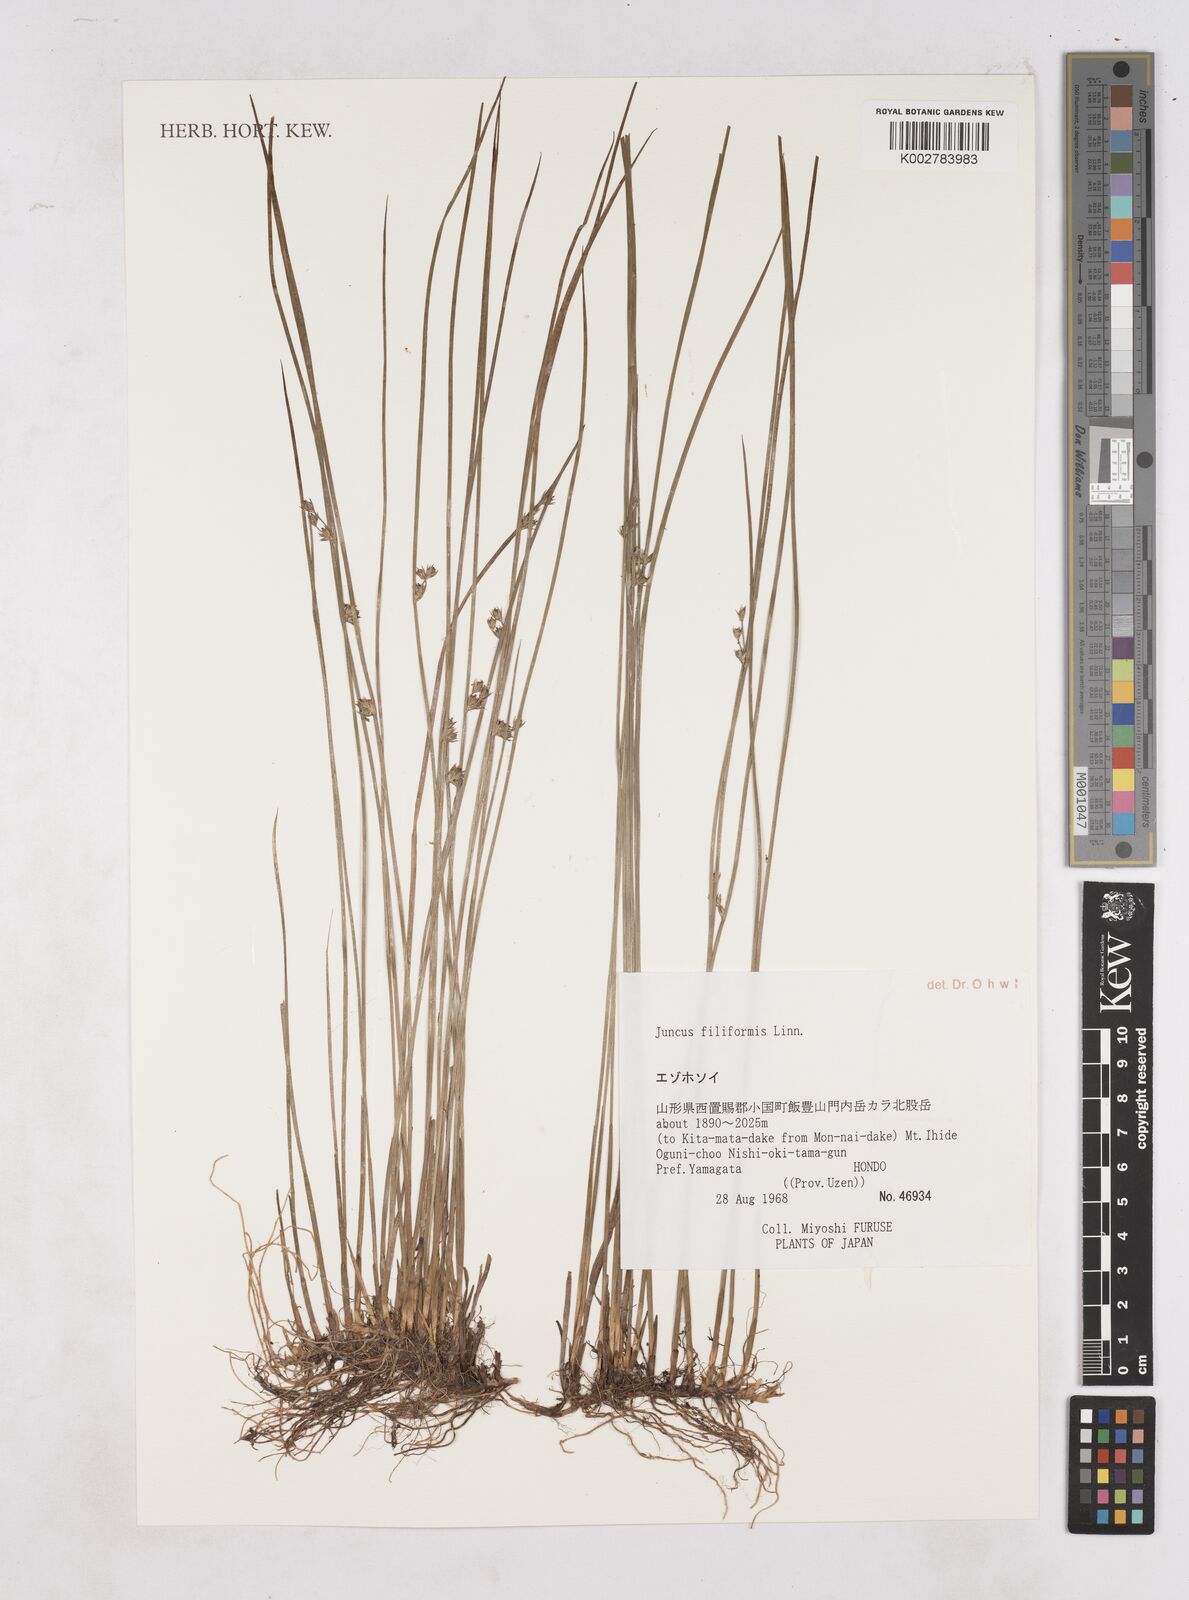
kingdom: Plantae
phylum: Tracheophyta
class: Liliopsida
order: Poales
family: Juncaceae
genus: Luzula
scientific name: Luzula
